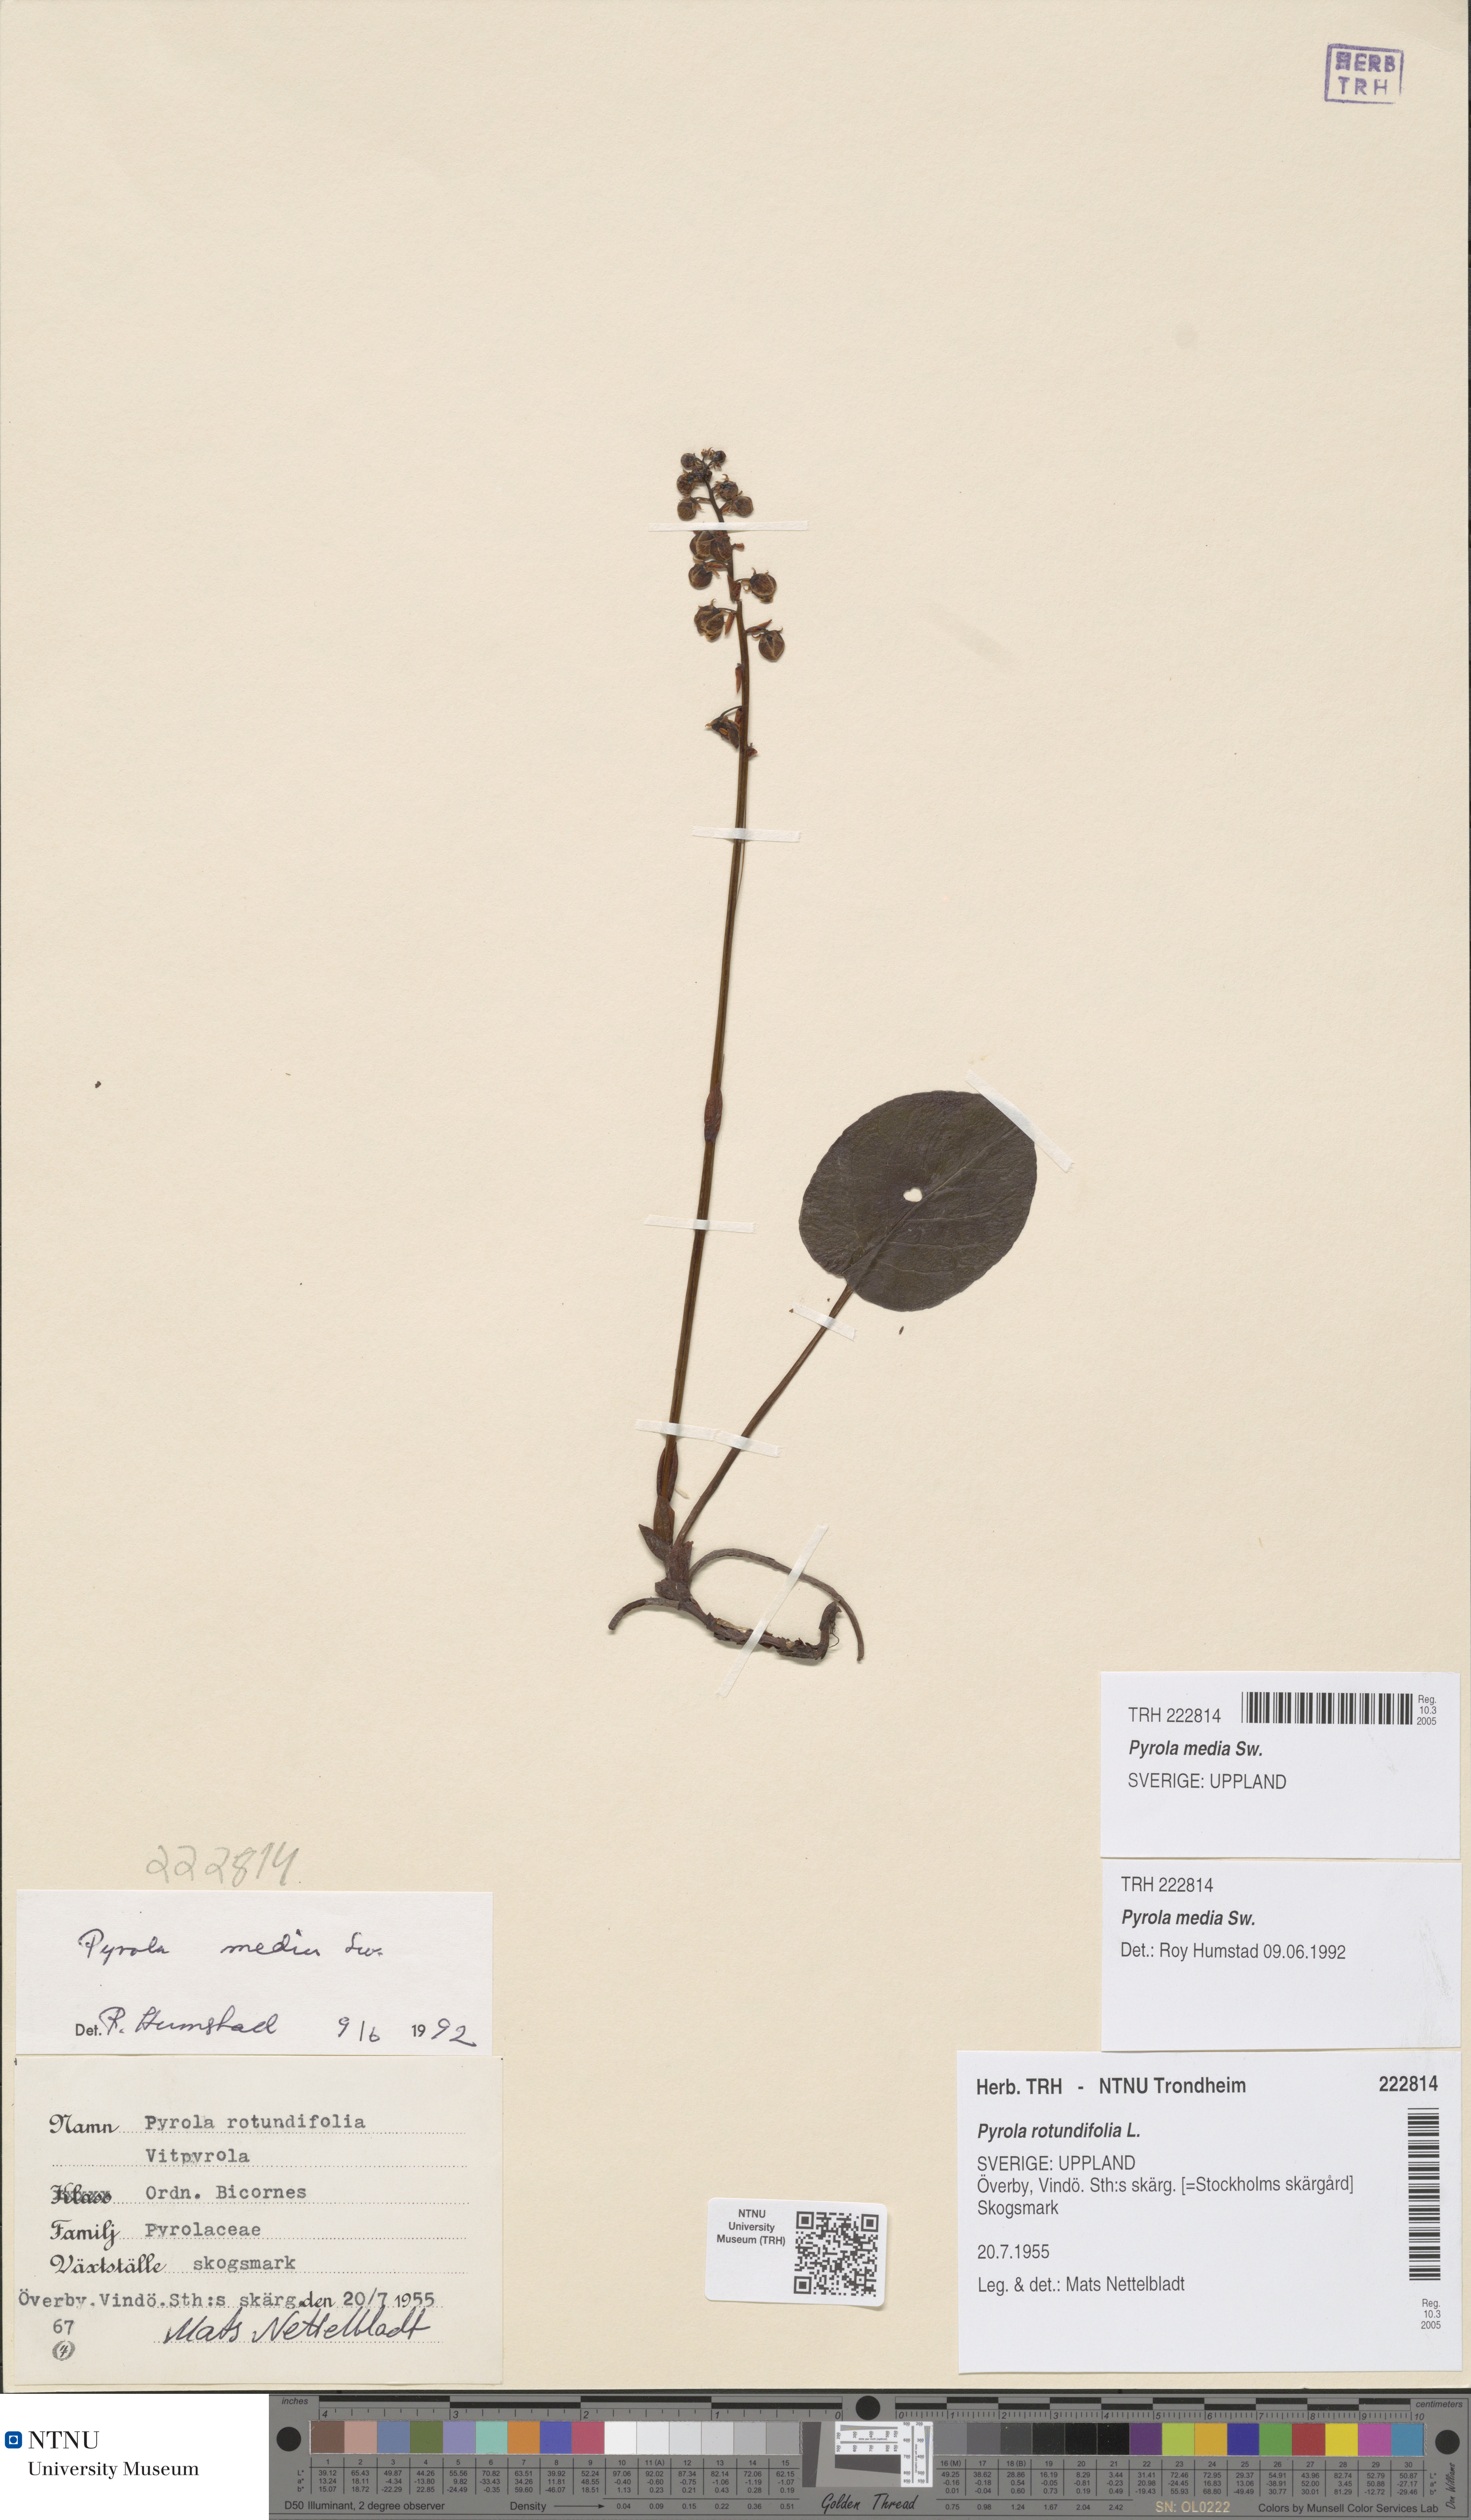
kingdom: Plantae
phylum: Tracheophyta
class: Magnoliopsida
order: Ericales
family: Ericaceae
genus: Pyrola
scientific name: Pyrola media
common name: Intermediate wintergreen
